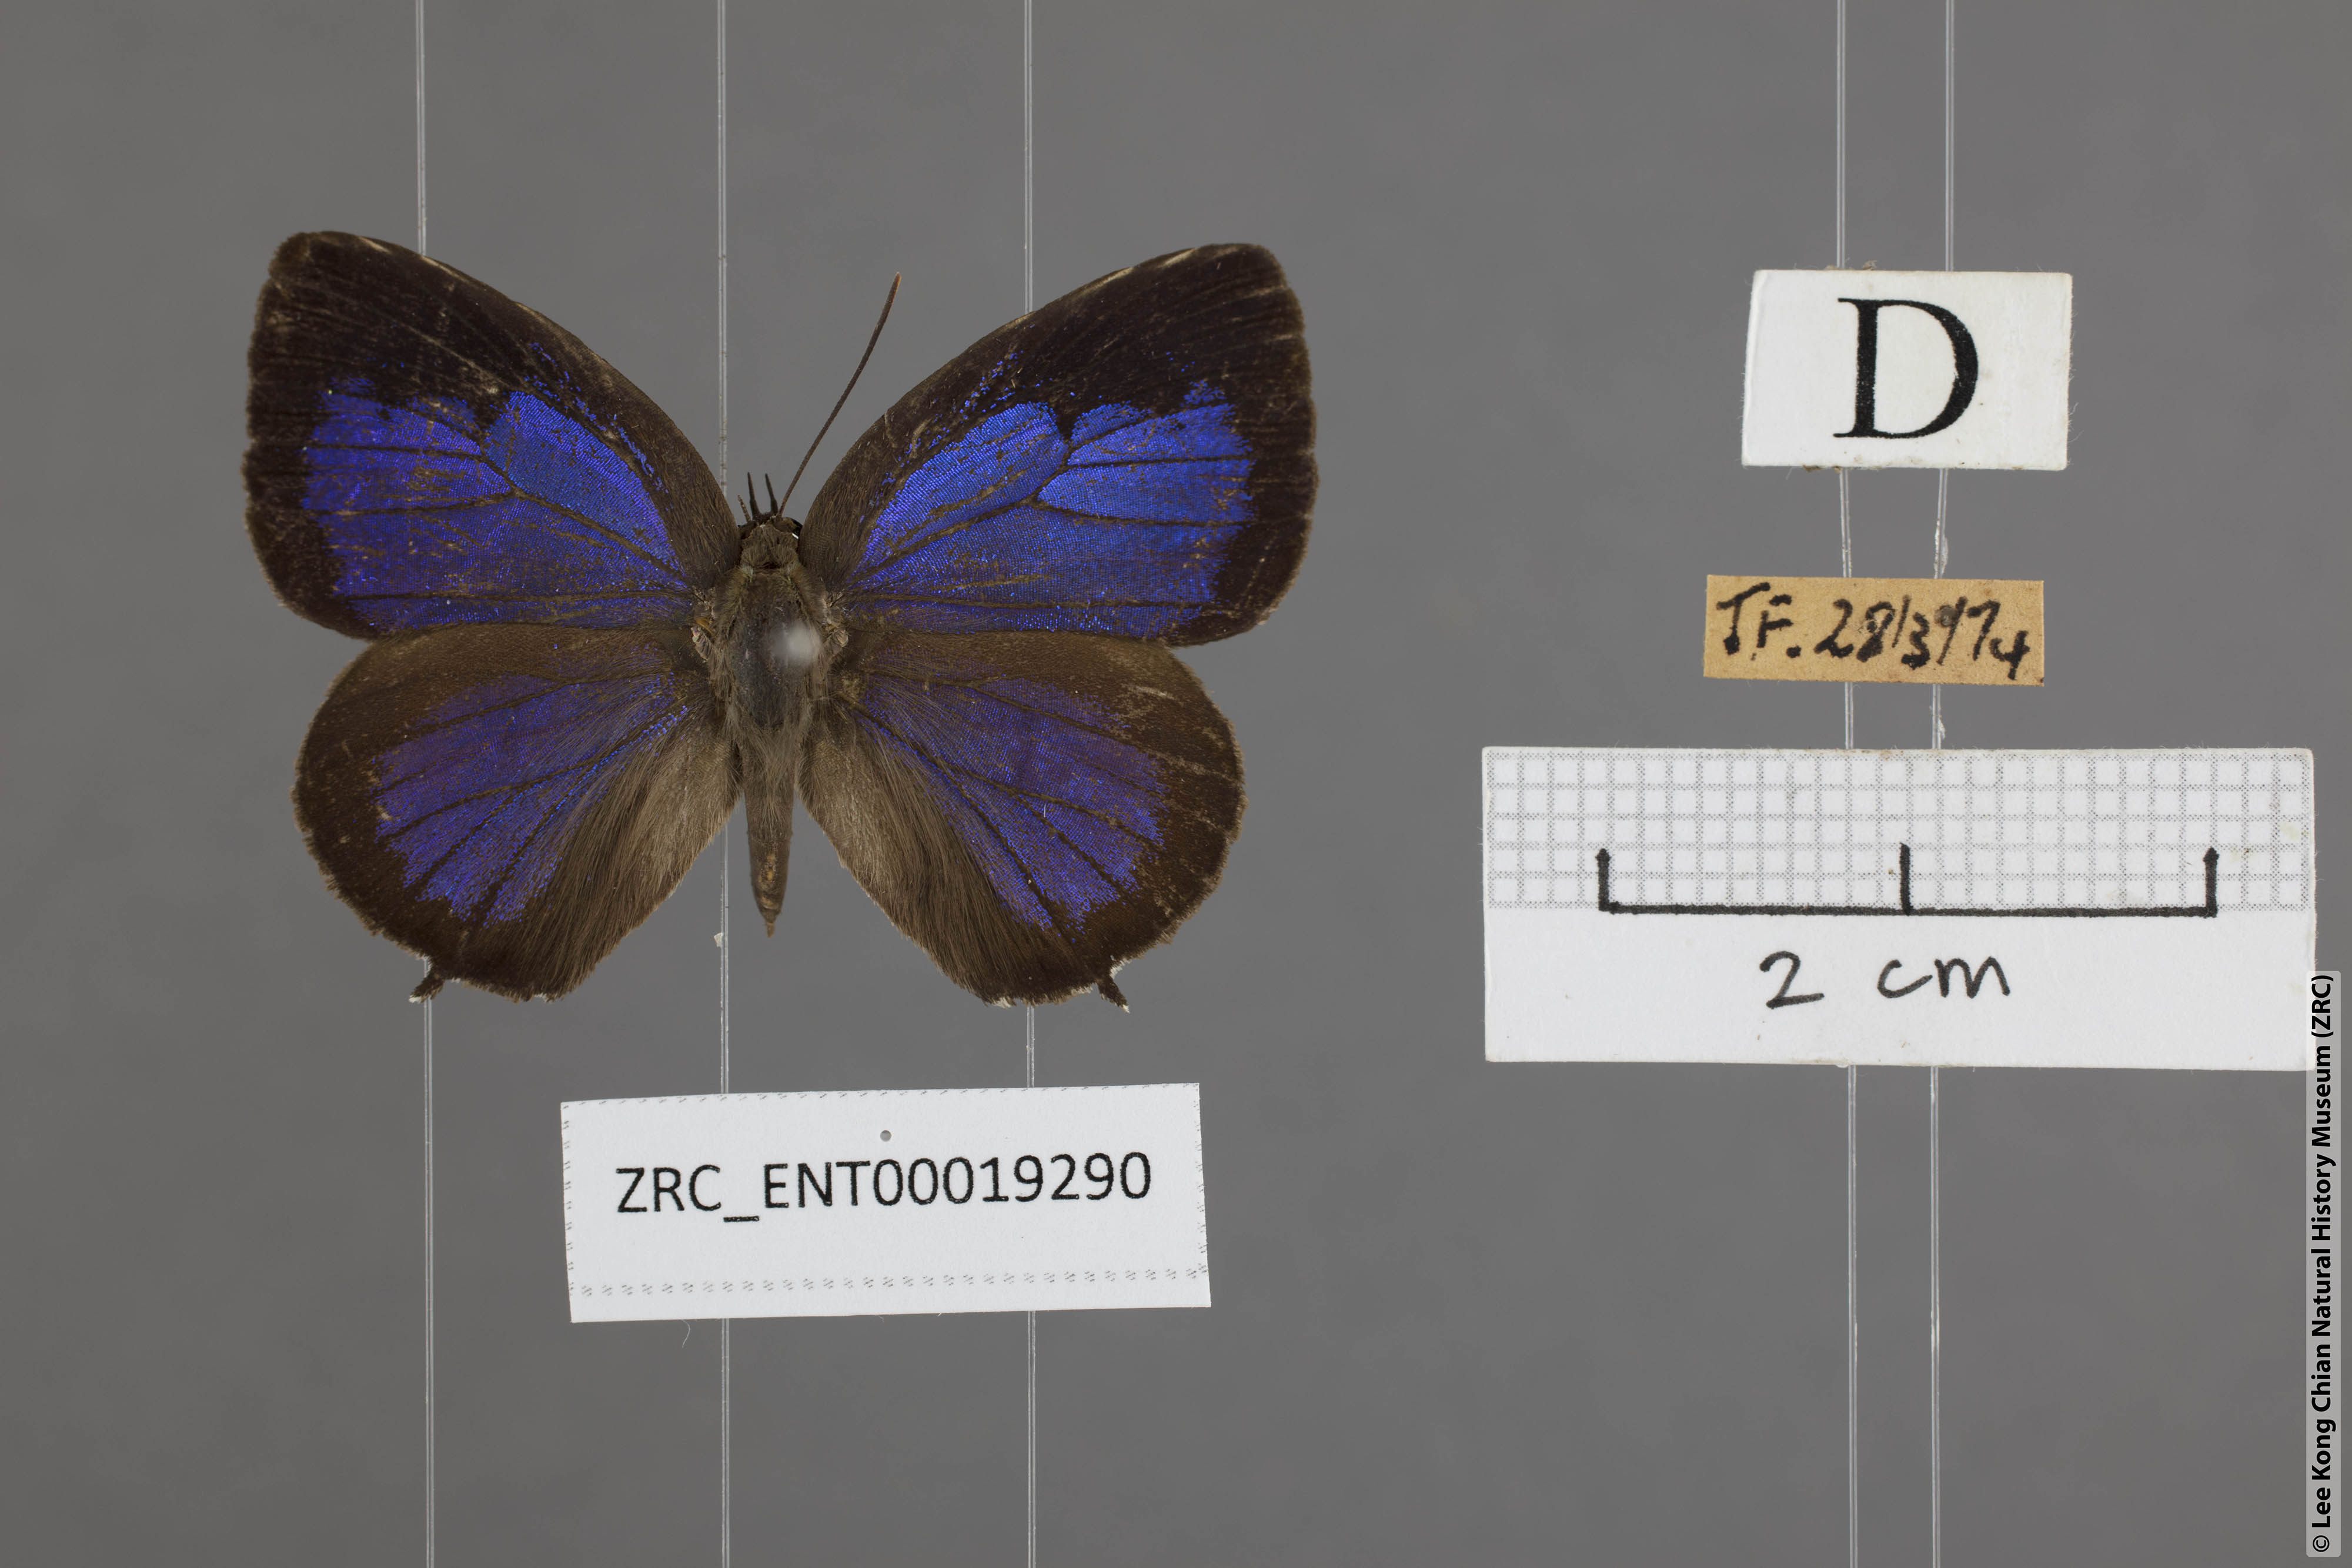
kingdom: Animalia
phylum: Arthropoda
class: Insecta
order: Lepidoptera
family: Lycaenidae
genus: Arhopala
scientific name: Arhopala aurea
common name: Long-celled oakblue
